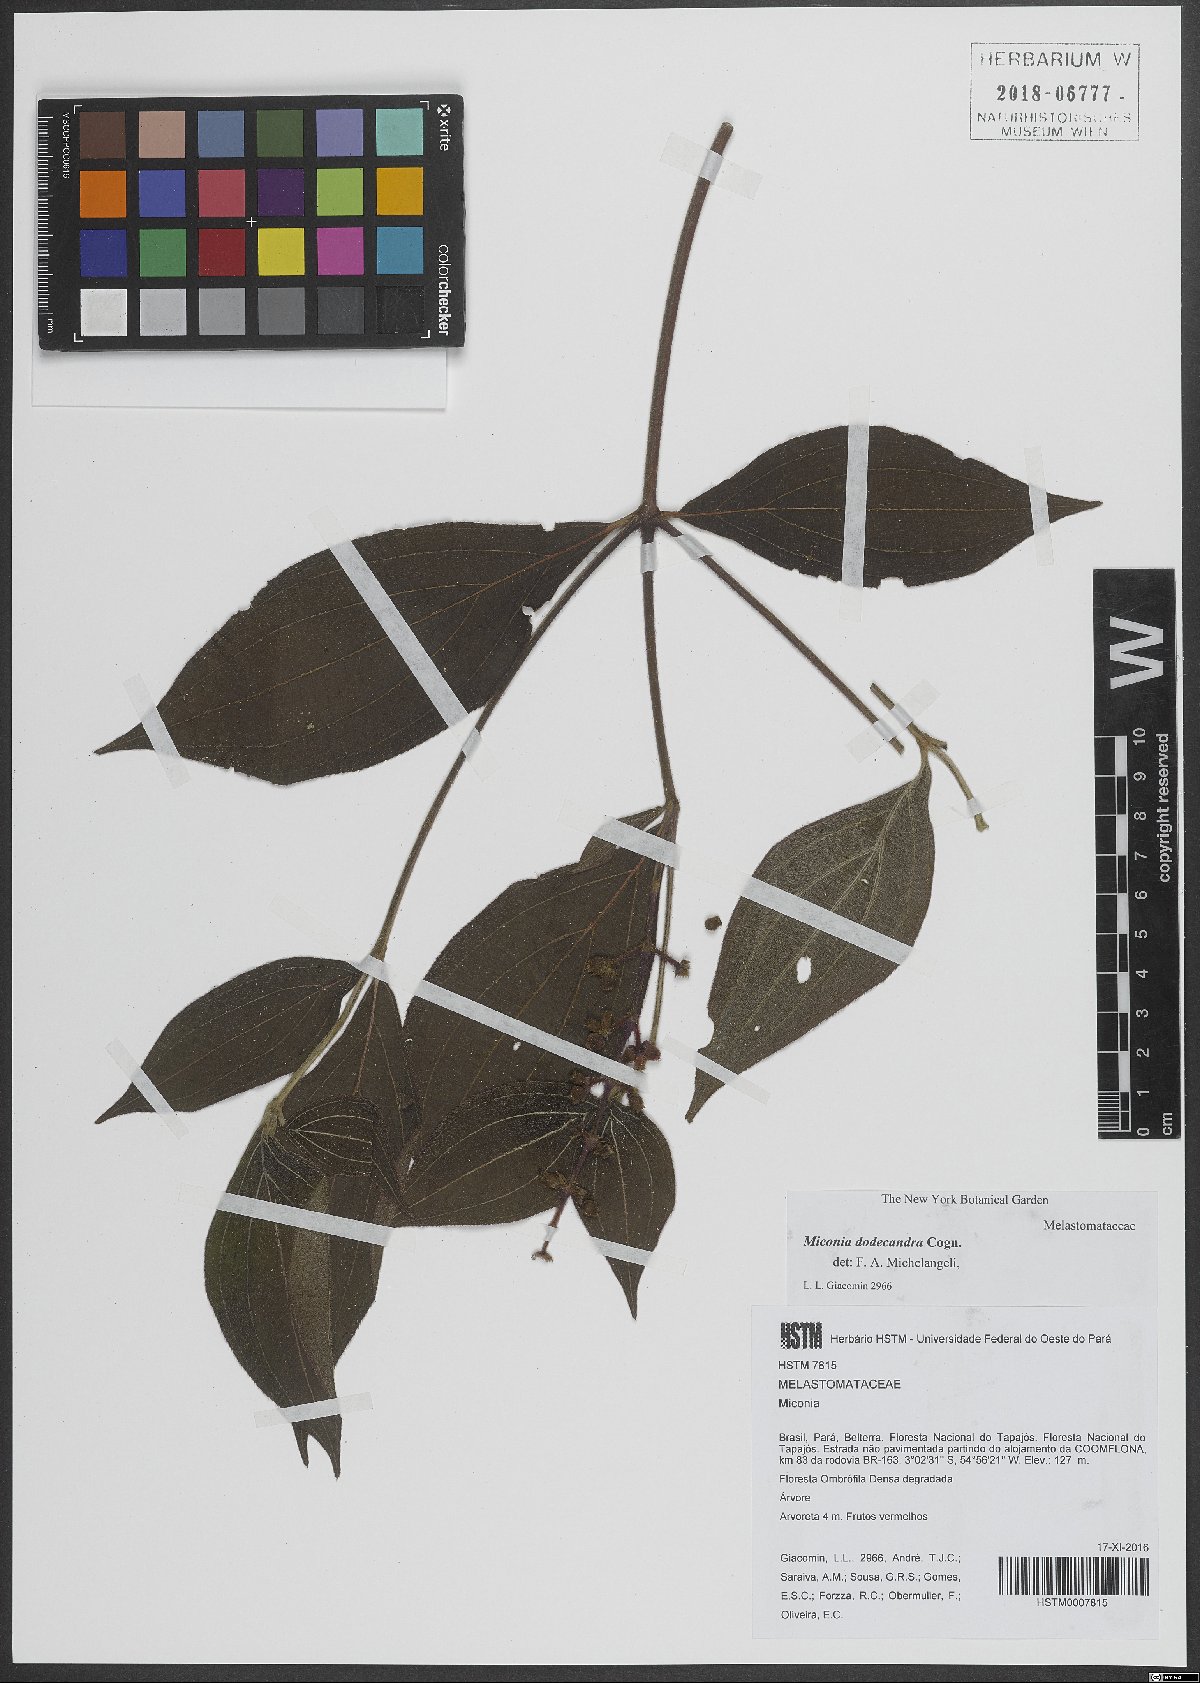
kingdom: Plantae
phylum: Tracheophyta
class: Magnoliopsida
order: Myrtales
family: Melastomataceae
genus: Miconia
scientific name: Miconia dodecandra
